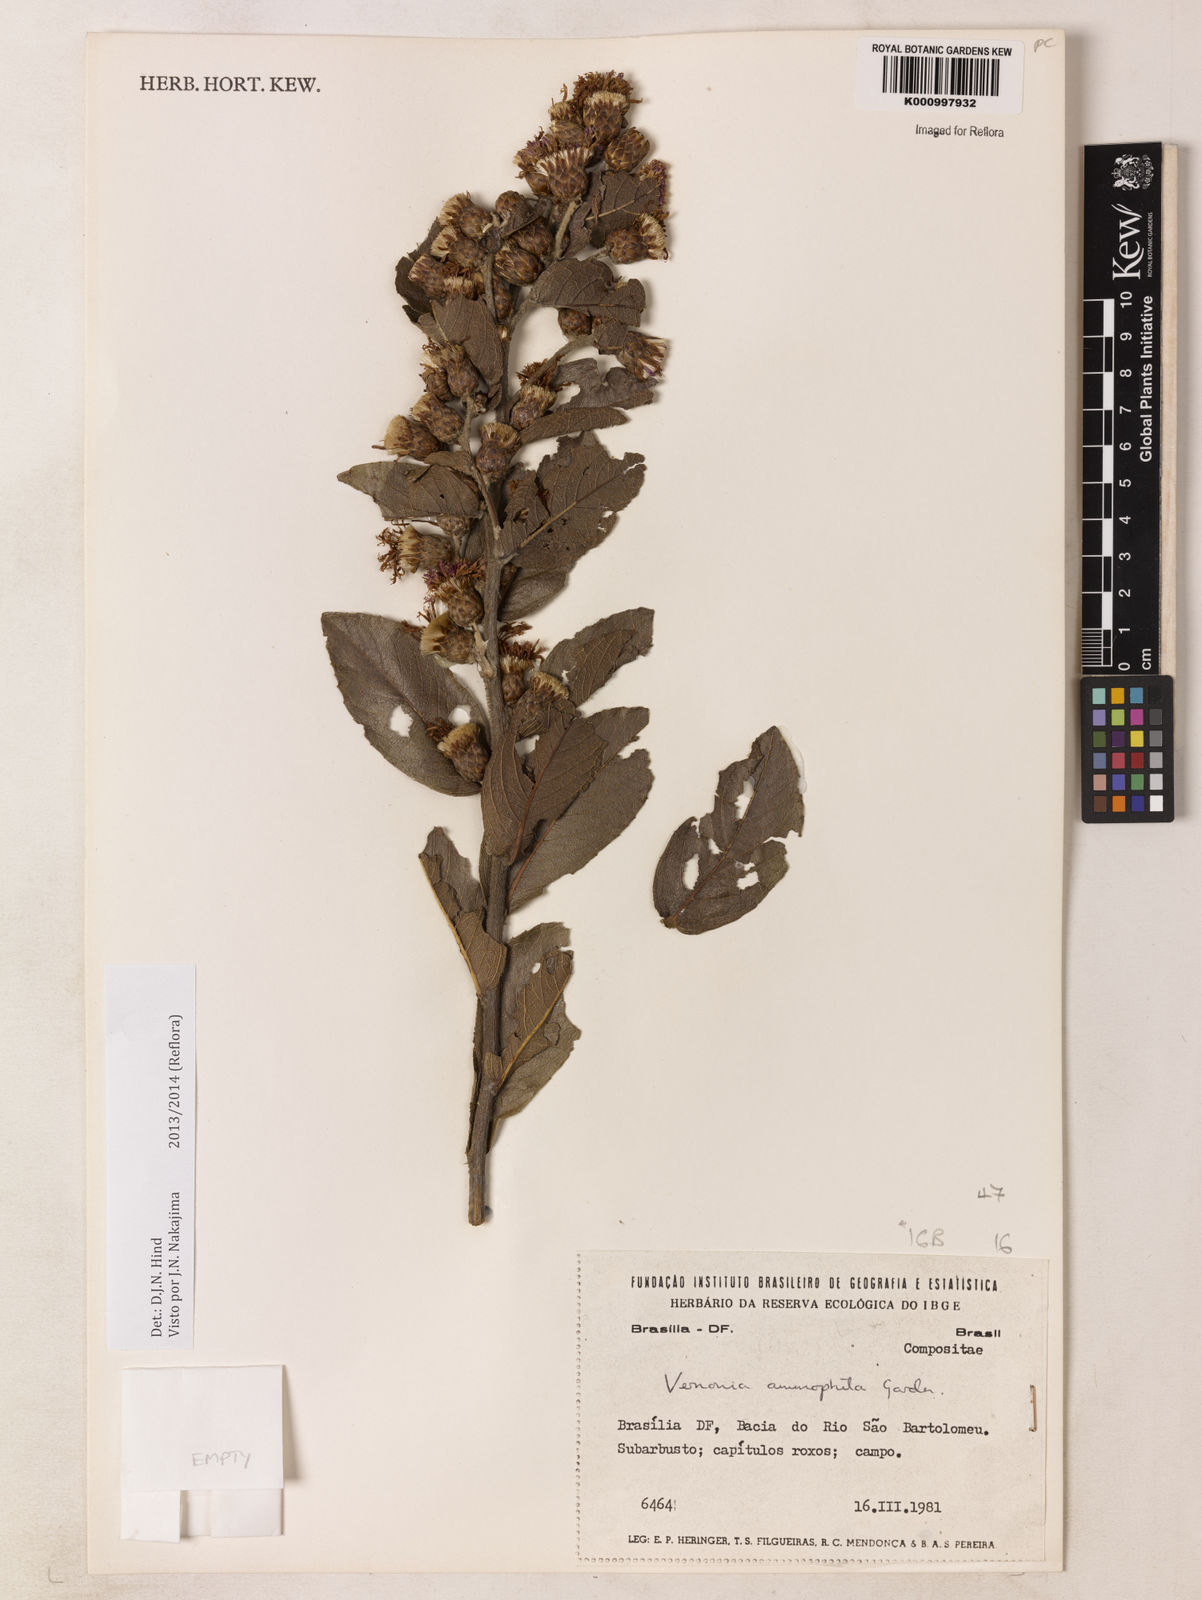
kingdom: Plantae
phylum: Tracheophyta
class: Magnoliopsida
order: Asterales
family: Asteraceae
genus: Lessingianthus
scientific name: Lessingianthus ammophilus
